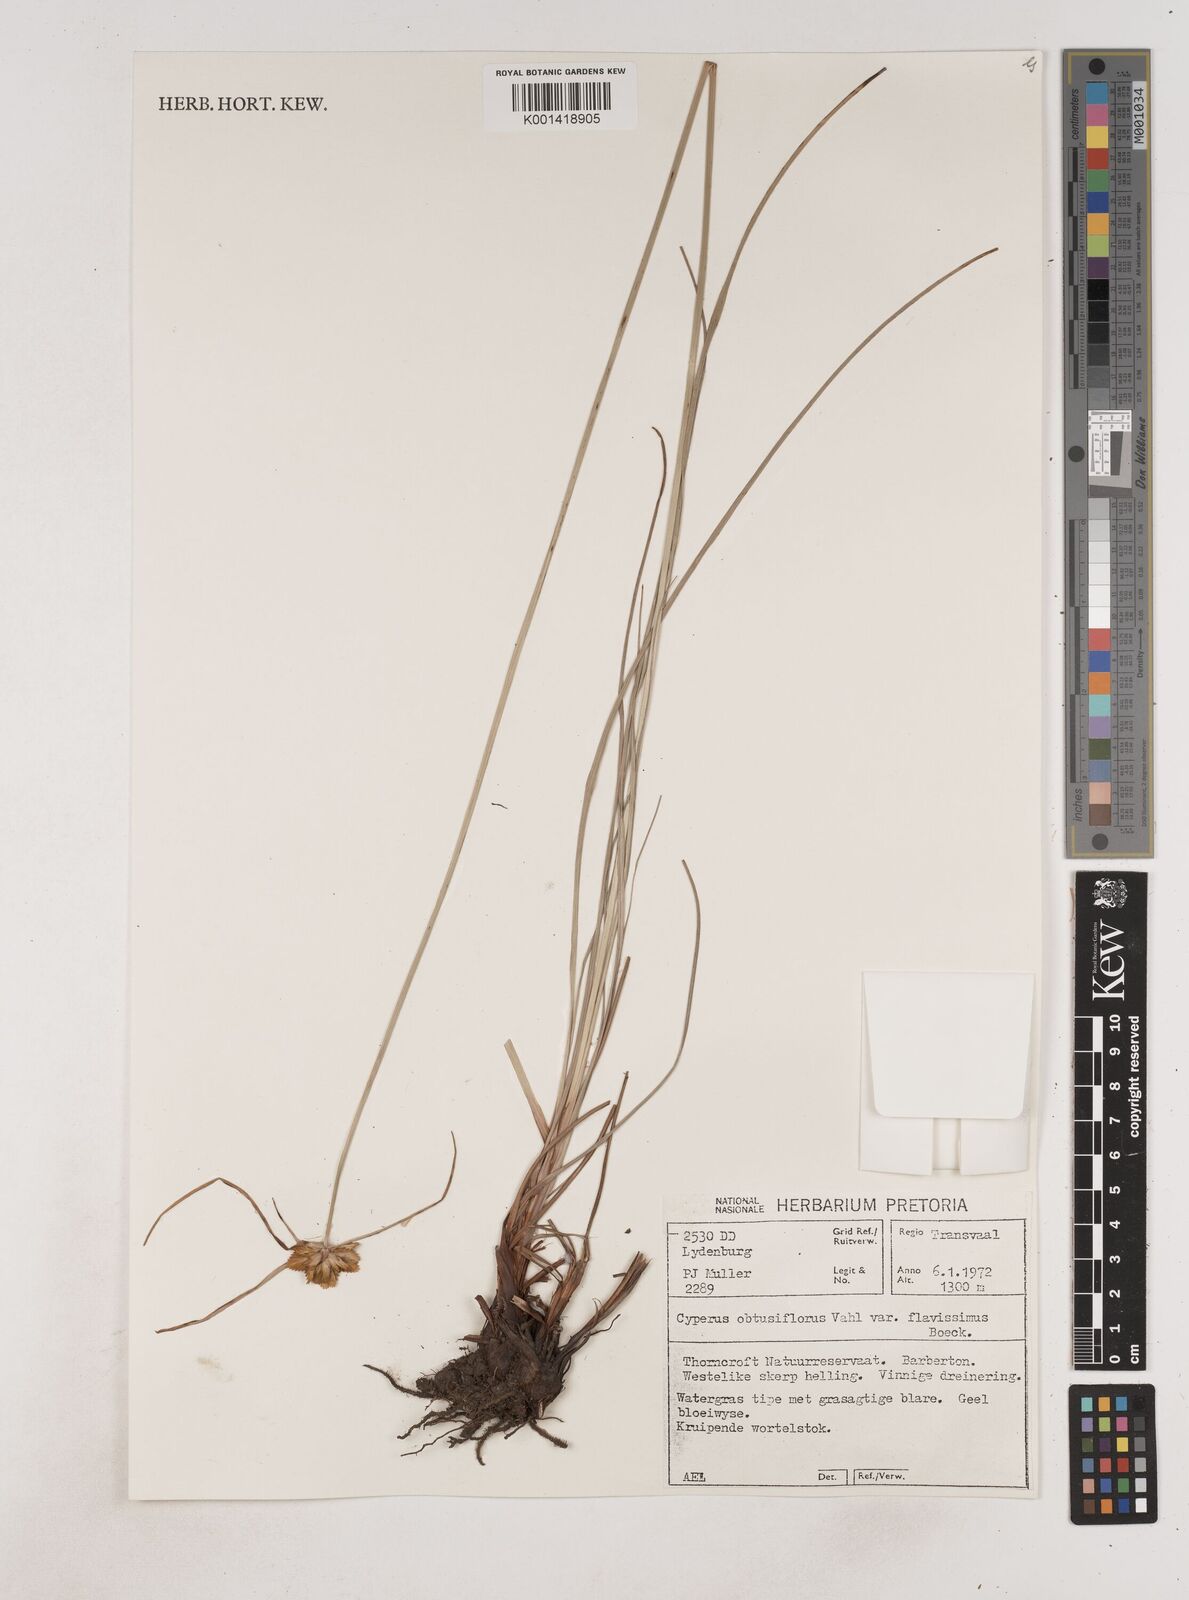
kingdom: Plantae
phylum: Tracheophyta
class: Liliopsida
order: Poales
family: Cyperaceae
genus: Cyperus
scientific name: Cyperus sphaerocephalus
